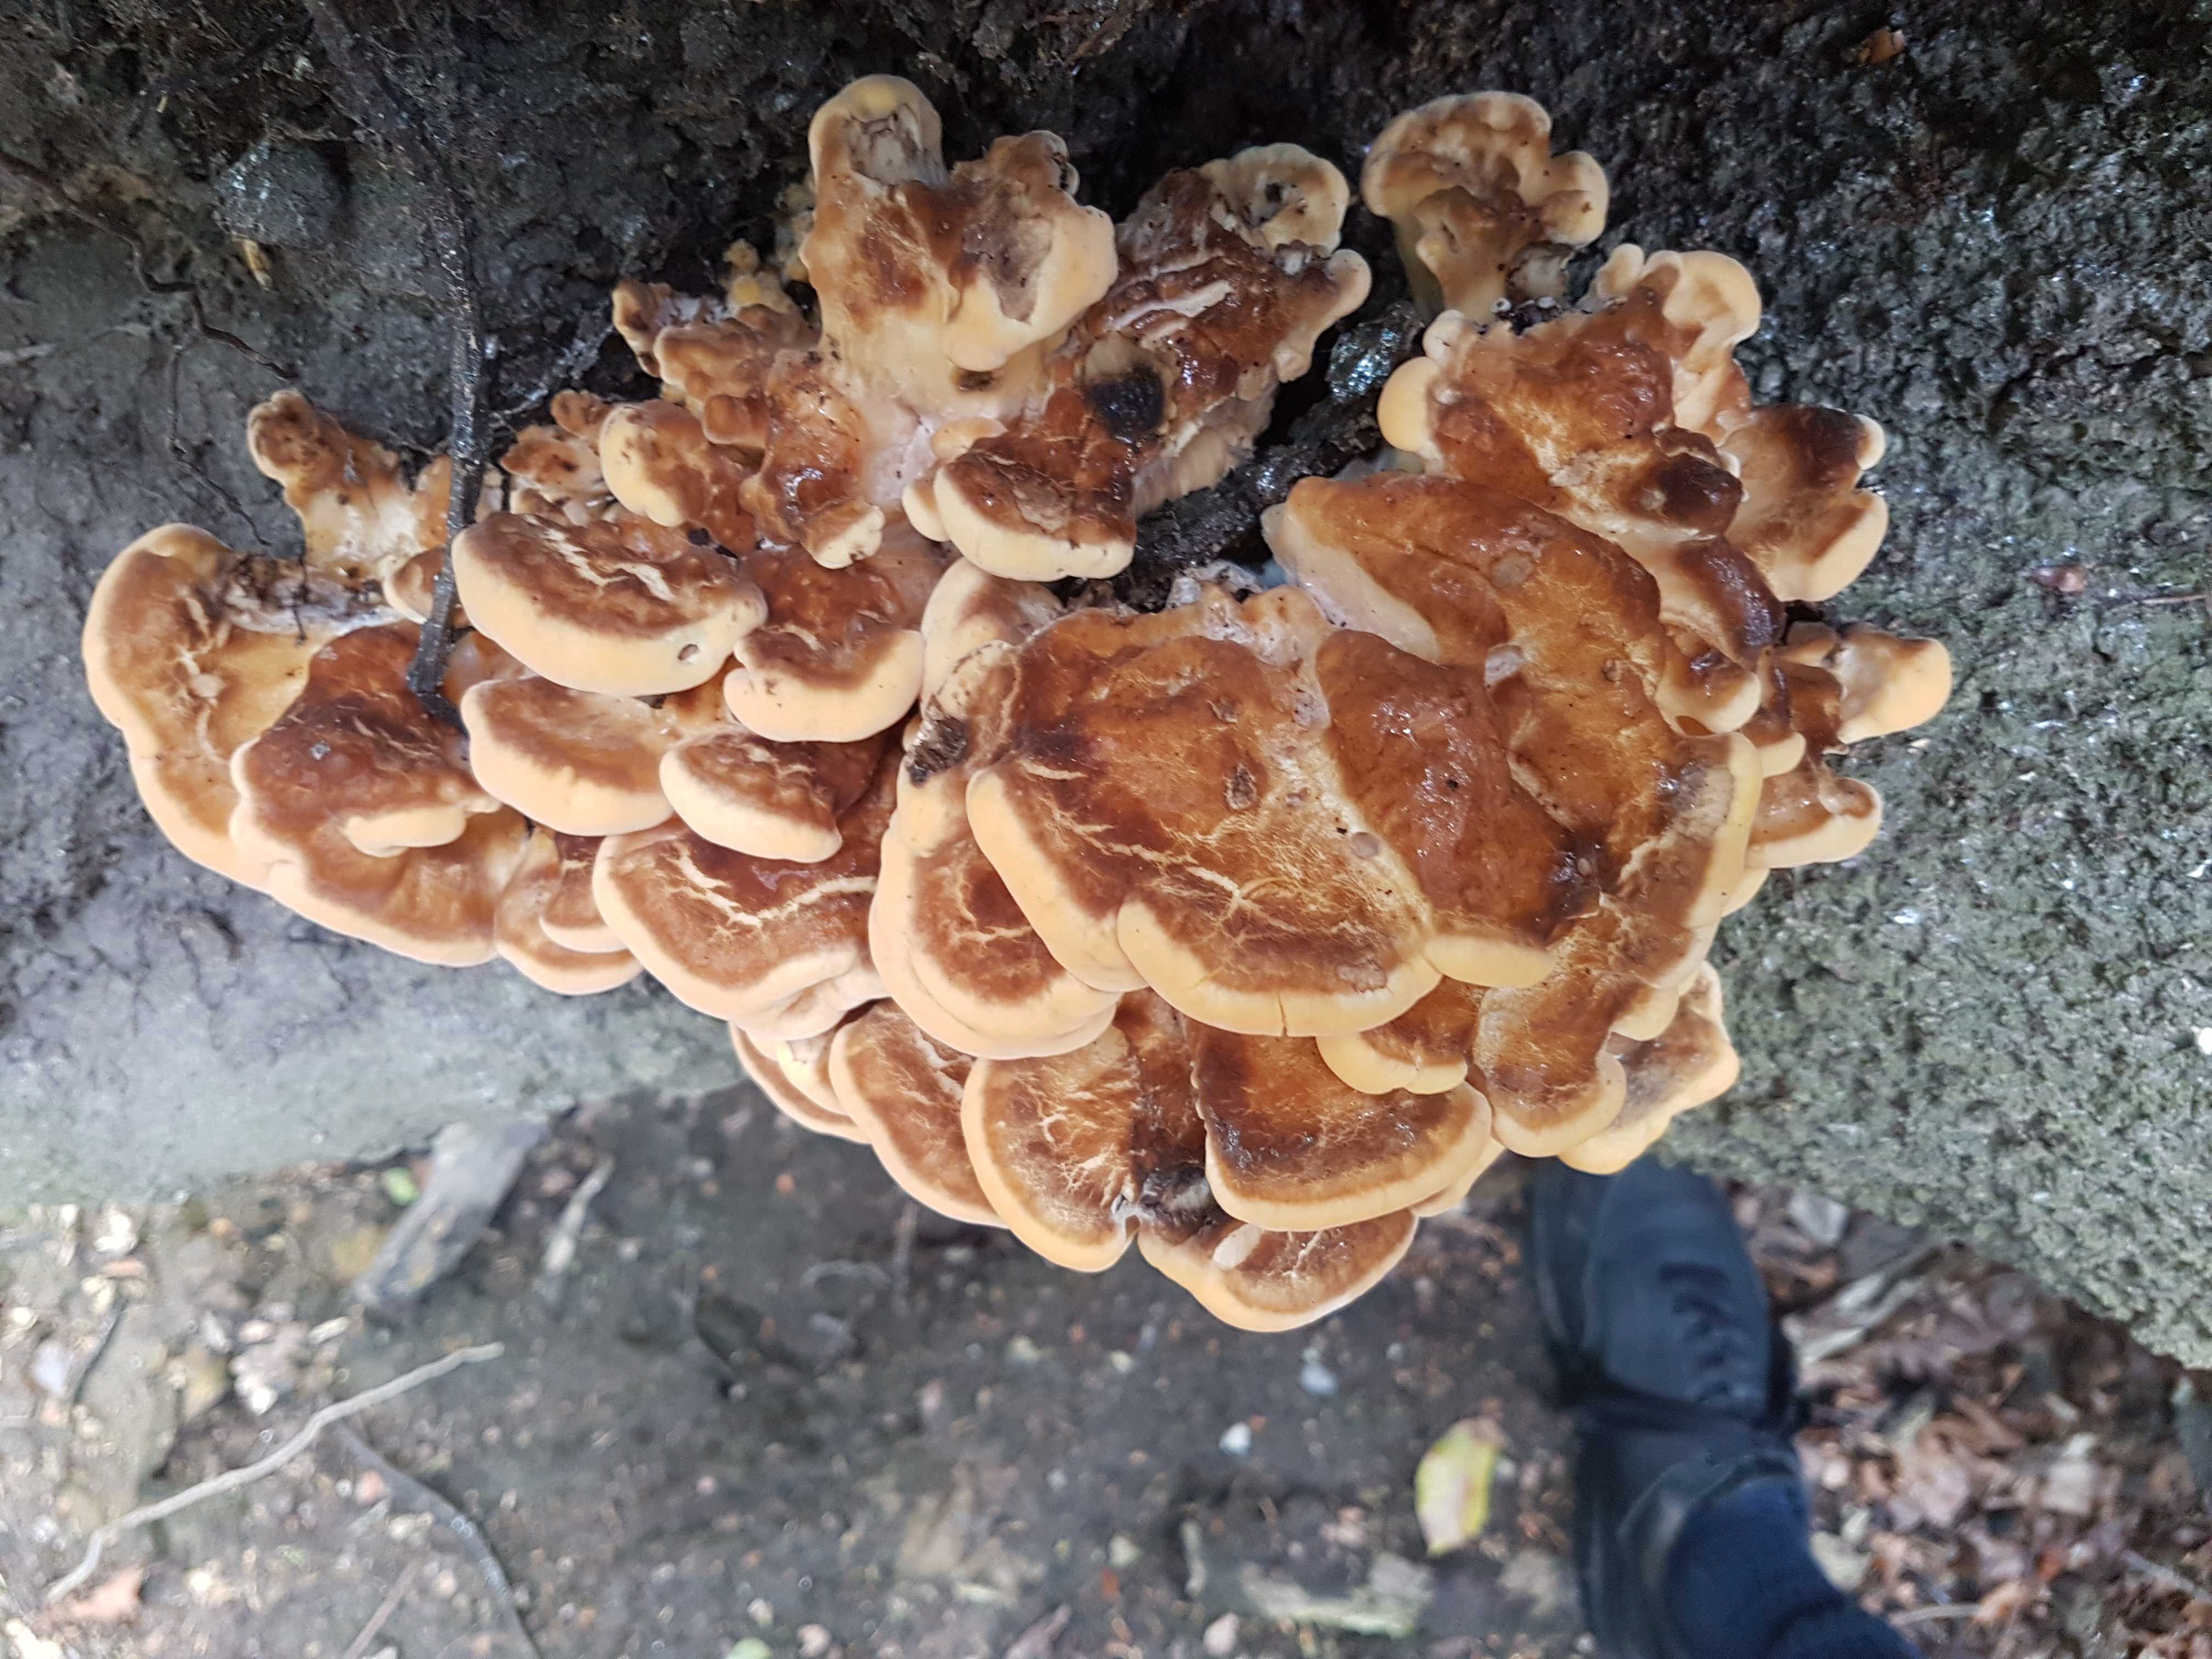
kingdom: Fungi
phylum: Basidiomycota
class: Agaricomycetes
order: Polyporales
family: Meripilaceae
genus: Meripilus
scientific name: Meripilus giganteus
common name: kæmpeporesvamp
